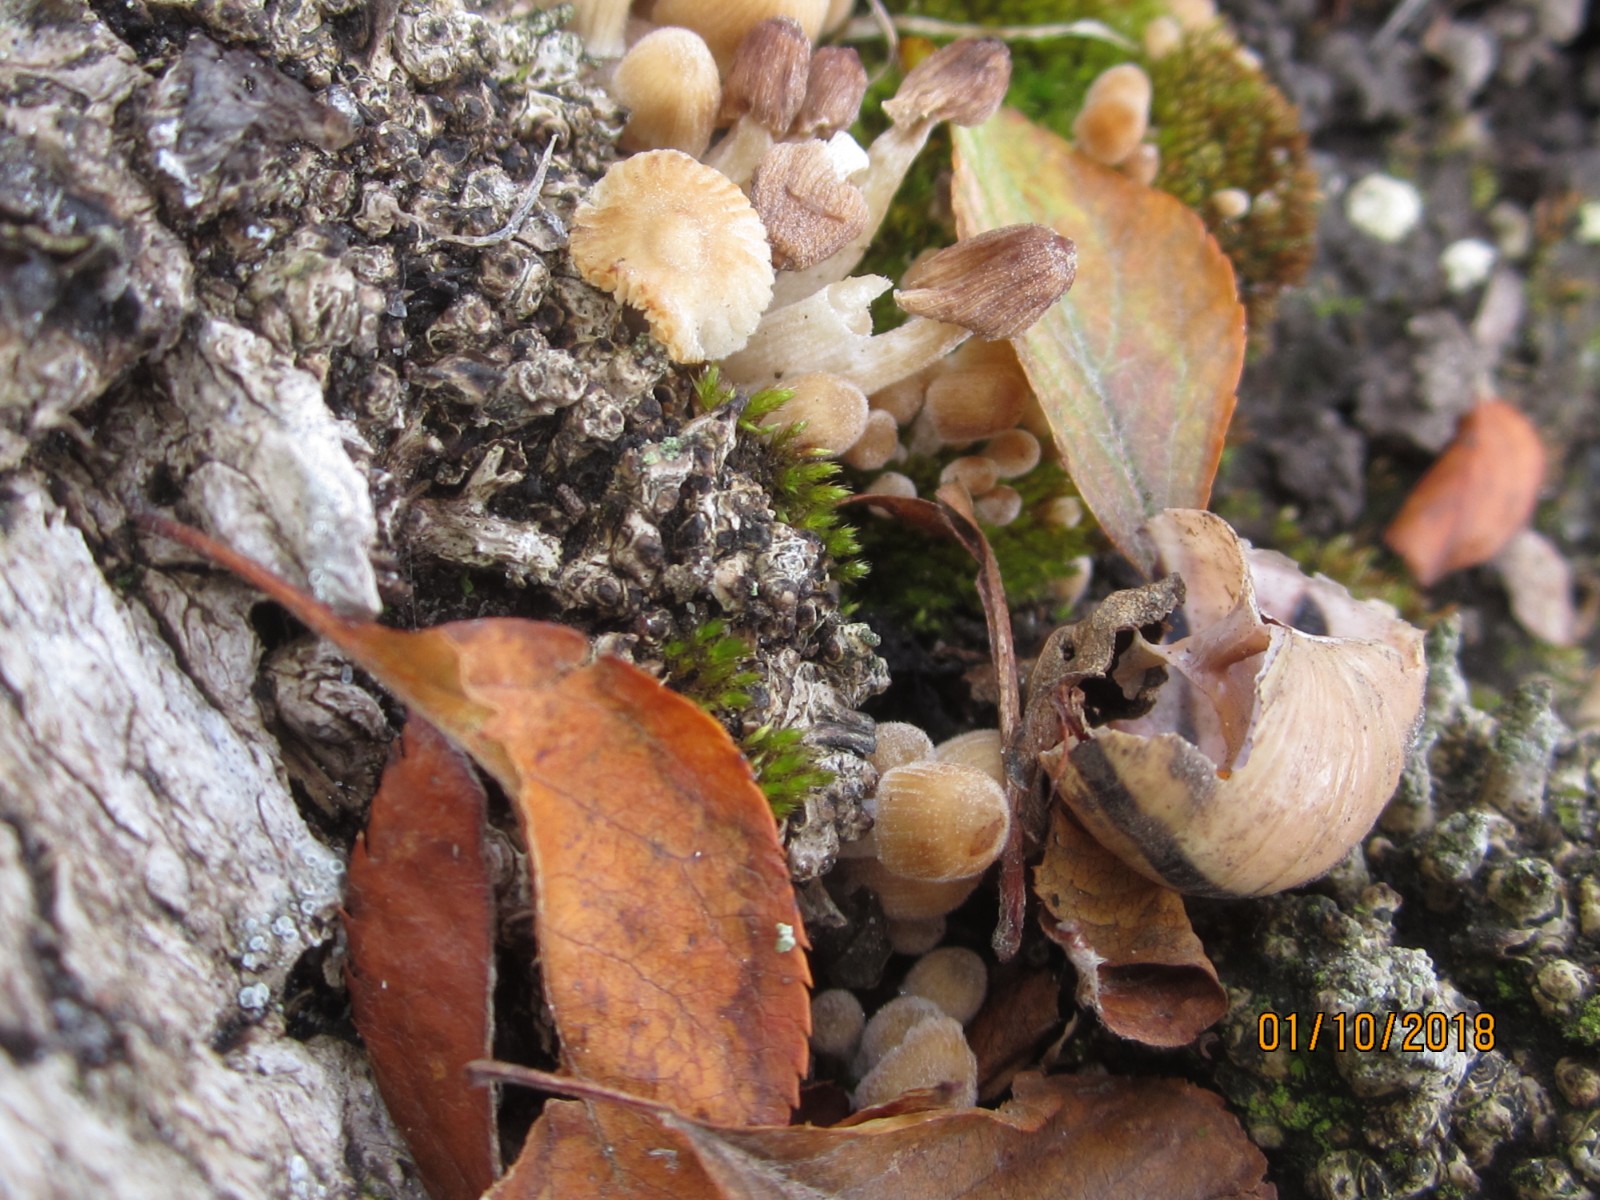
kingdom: Fungi
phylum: Basidiomycota
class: Agaricomycetes
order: Agaricales
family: Psathyrellaceae
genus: Coprinellus
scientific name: Coprinellus disseminatus
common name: bredsået blækhat
